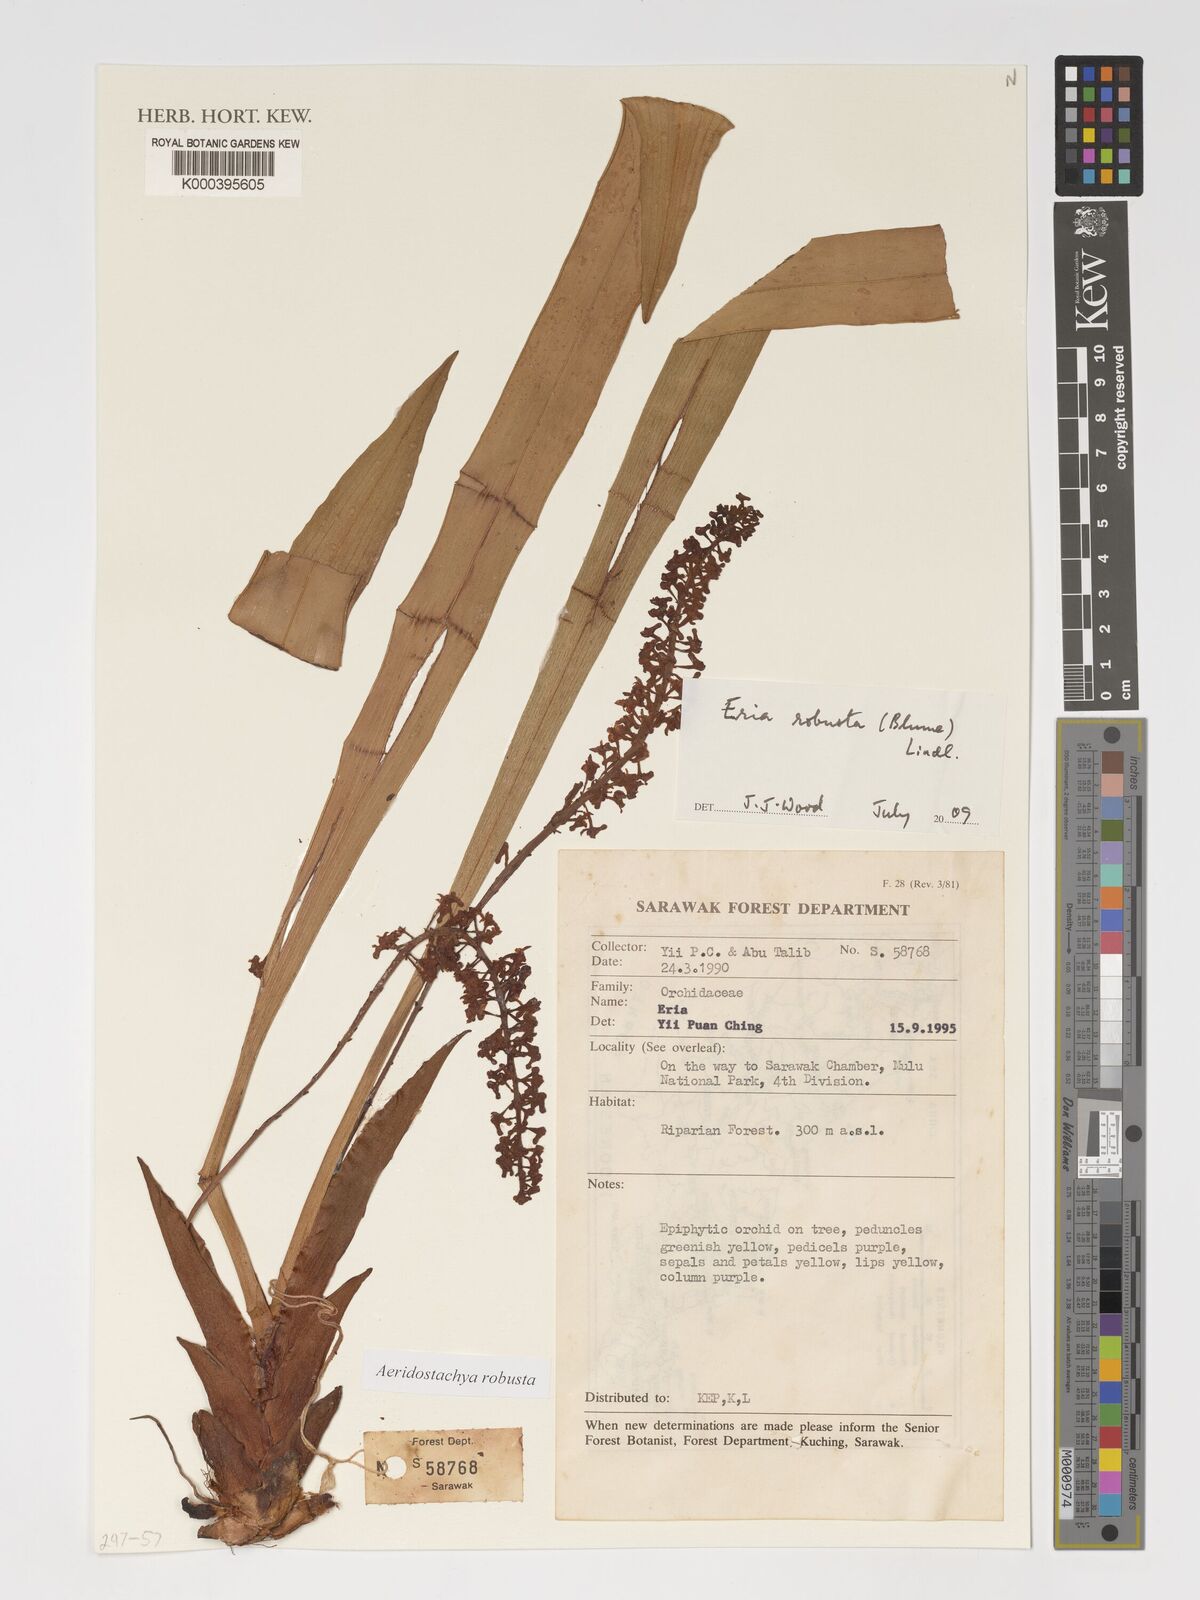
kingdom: Plantae
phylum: Tracheophyta
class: Liliopsida
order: Asparagales
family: Orchidaceae
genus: Aeridostachya
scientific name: Aeridostachya robusta
